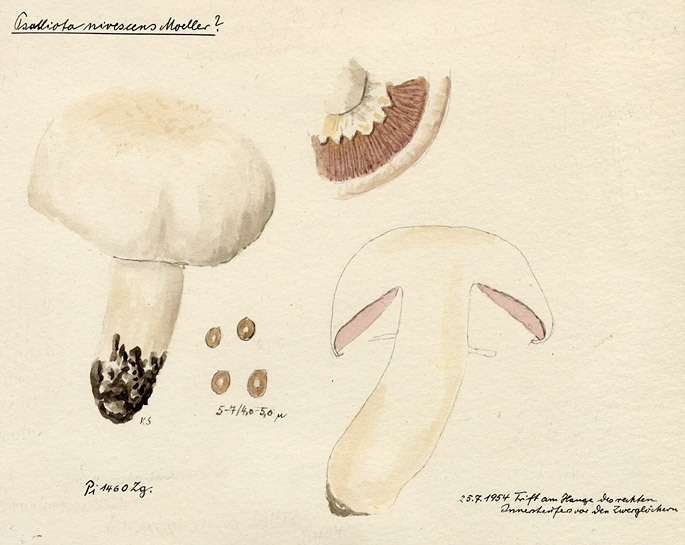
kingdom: Fungi
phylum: Basidiomycota
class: Agaricomycetes
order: Agaricales
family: Agaricaceae
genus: Agaricus
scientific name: Agaricus urinascens
